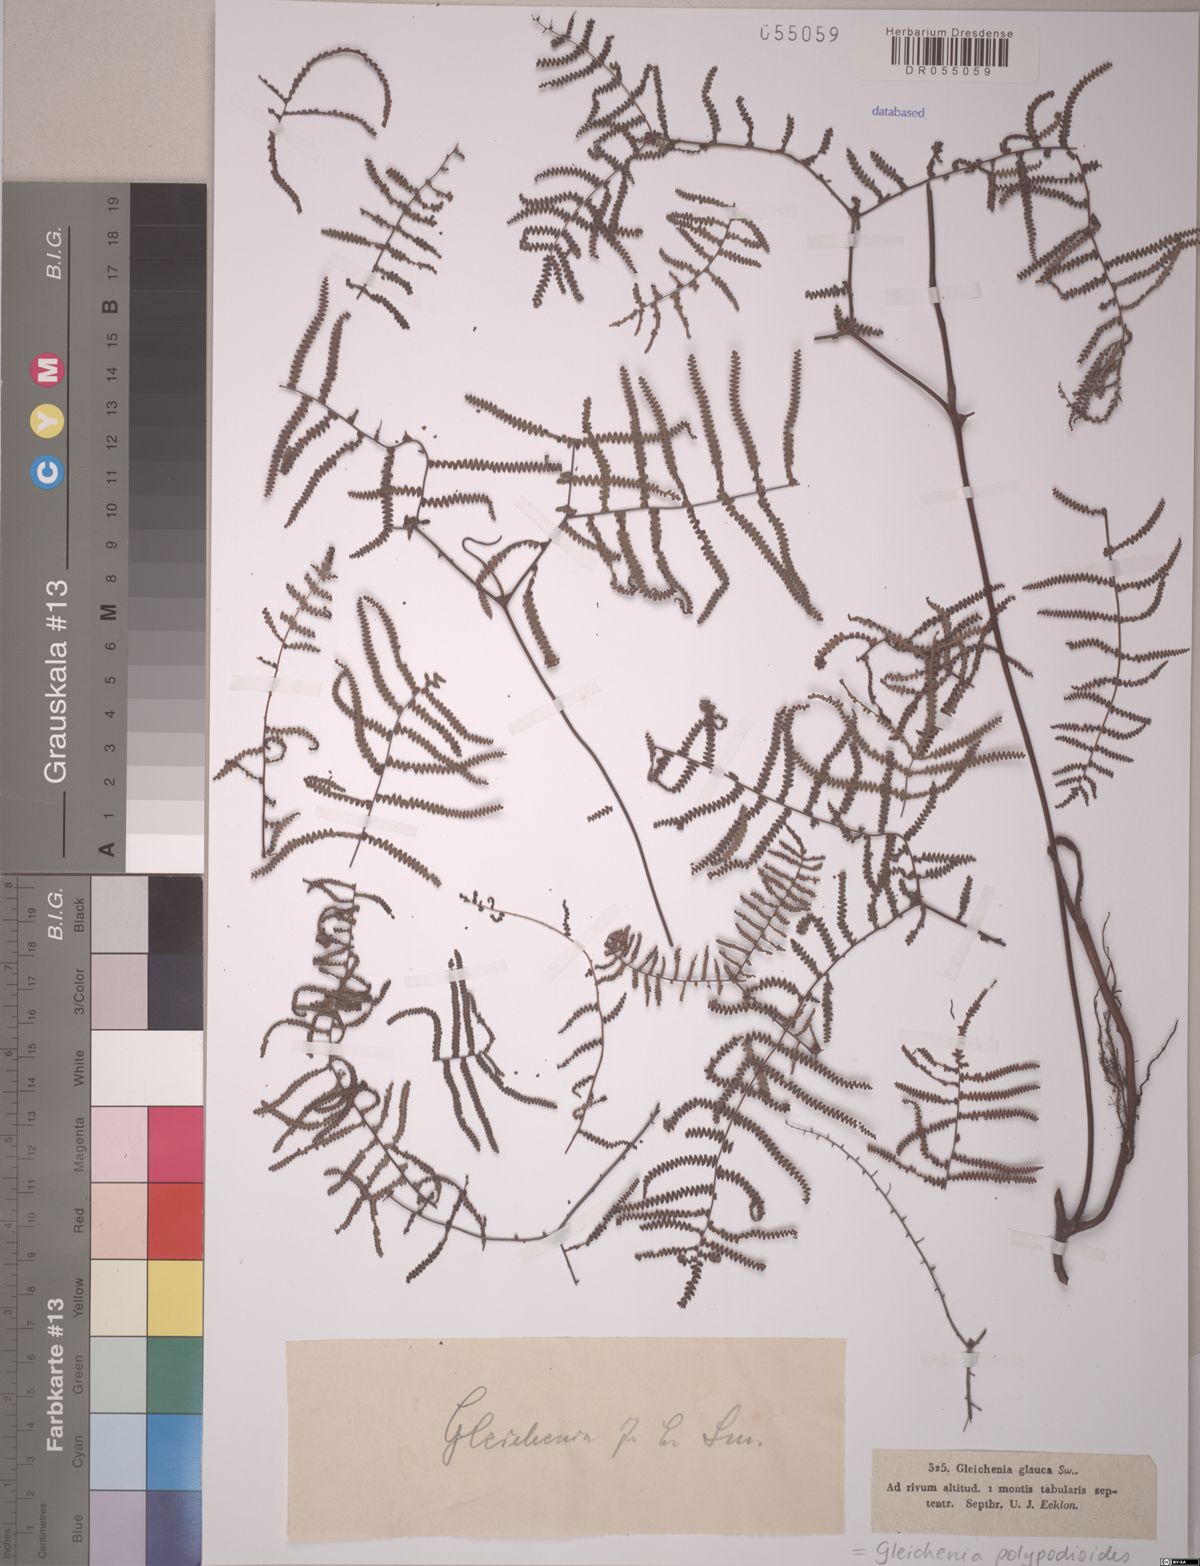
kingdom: Plantae
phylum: Tracheophyta
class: Polypodiopsida
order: Gleicheniales
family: Gleicheniaceae
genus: Gleichenia
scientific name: Gleichenia polypodioides
